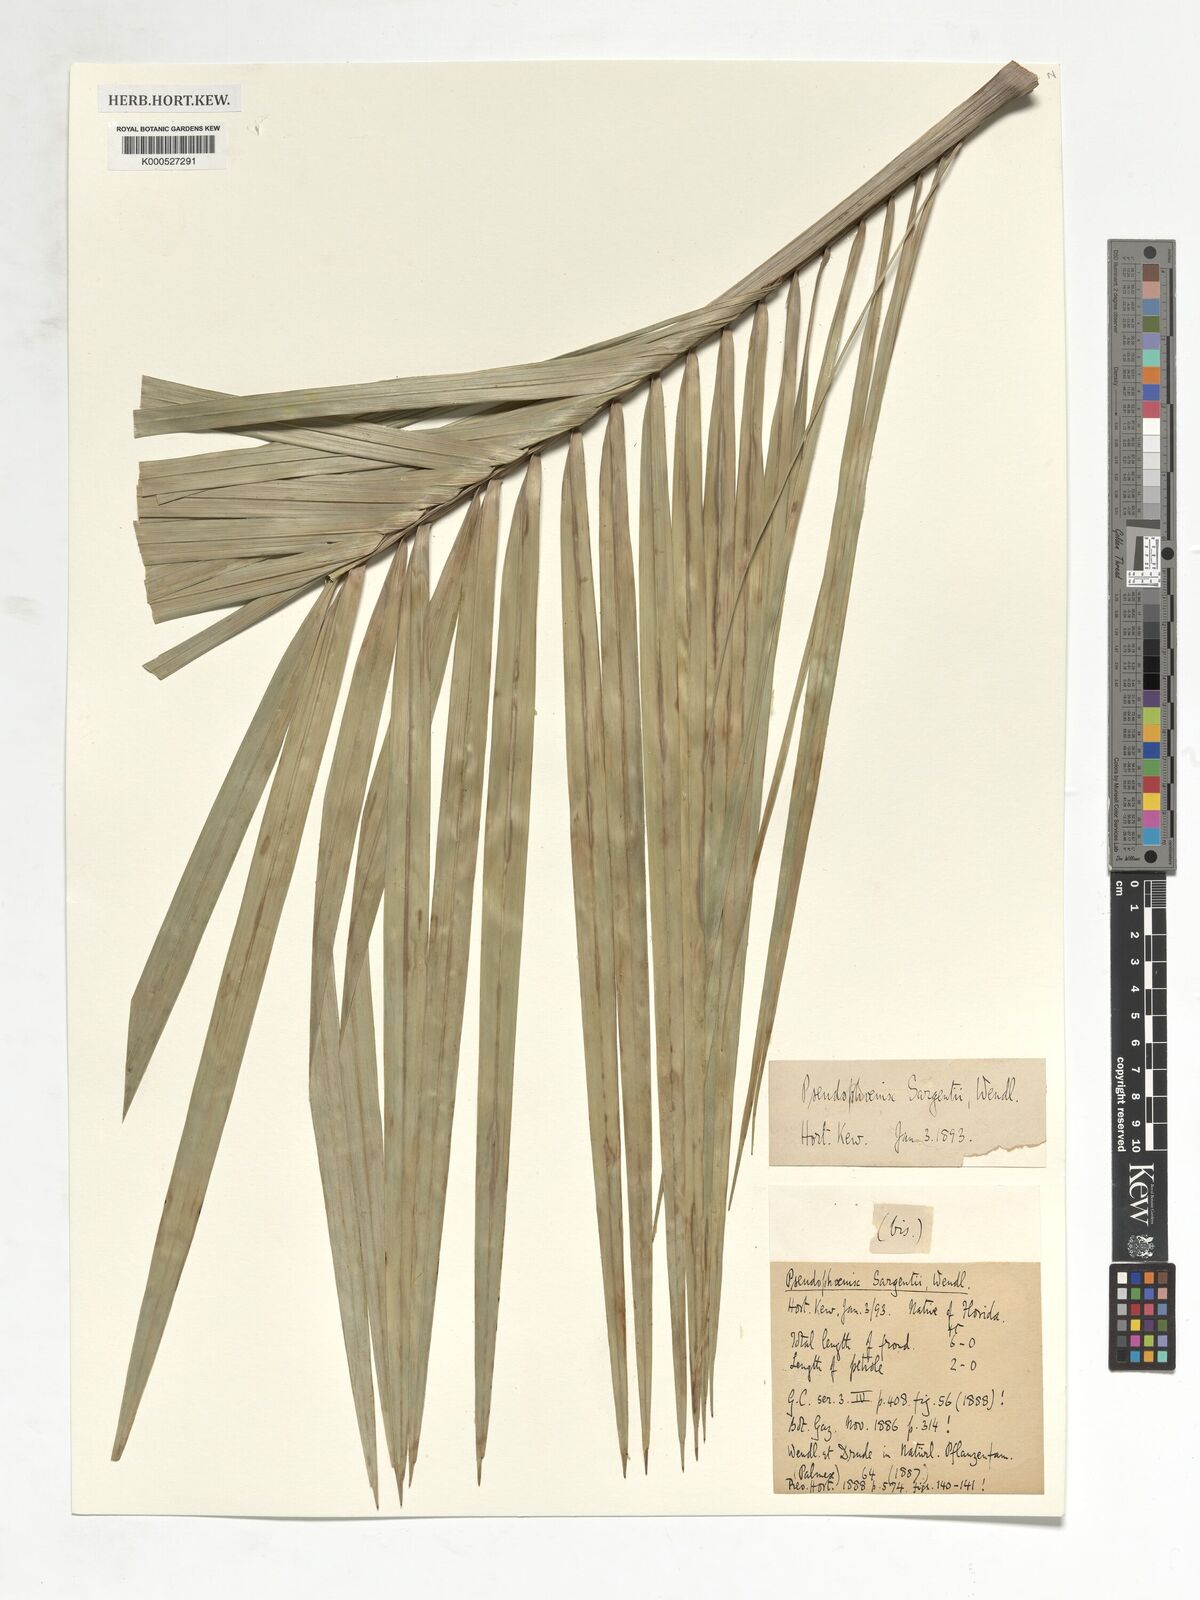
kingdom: Plantae
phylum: Tracheophyta
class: Liliopsida
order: Arecales
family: Arecaceae
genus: Pseudophoenix
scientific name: Pseudophoenix sargentii
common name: Buccaneer palm
